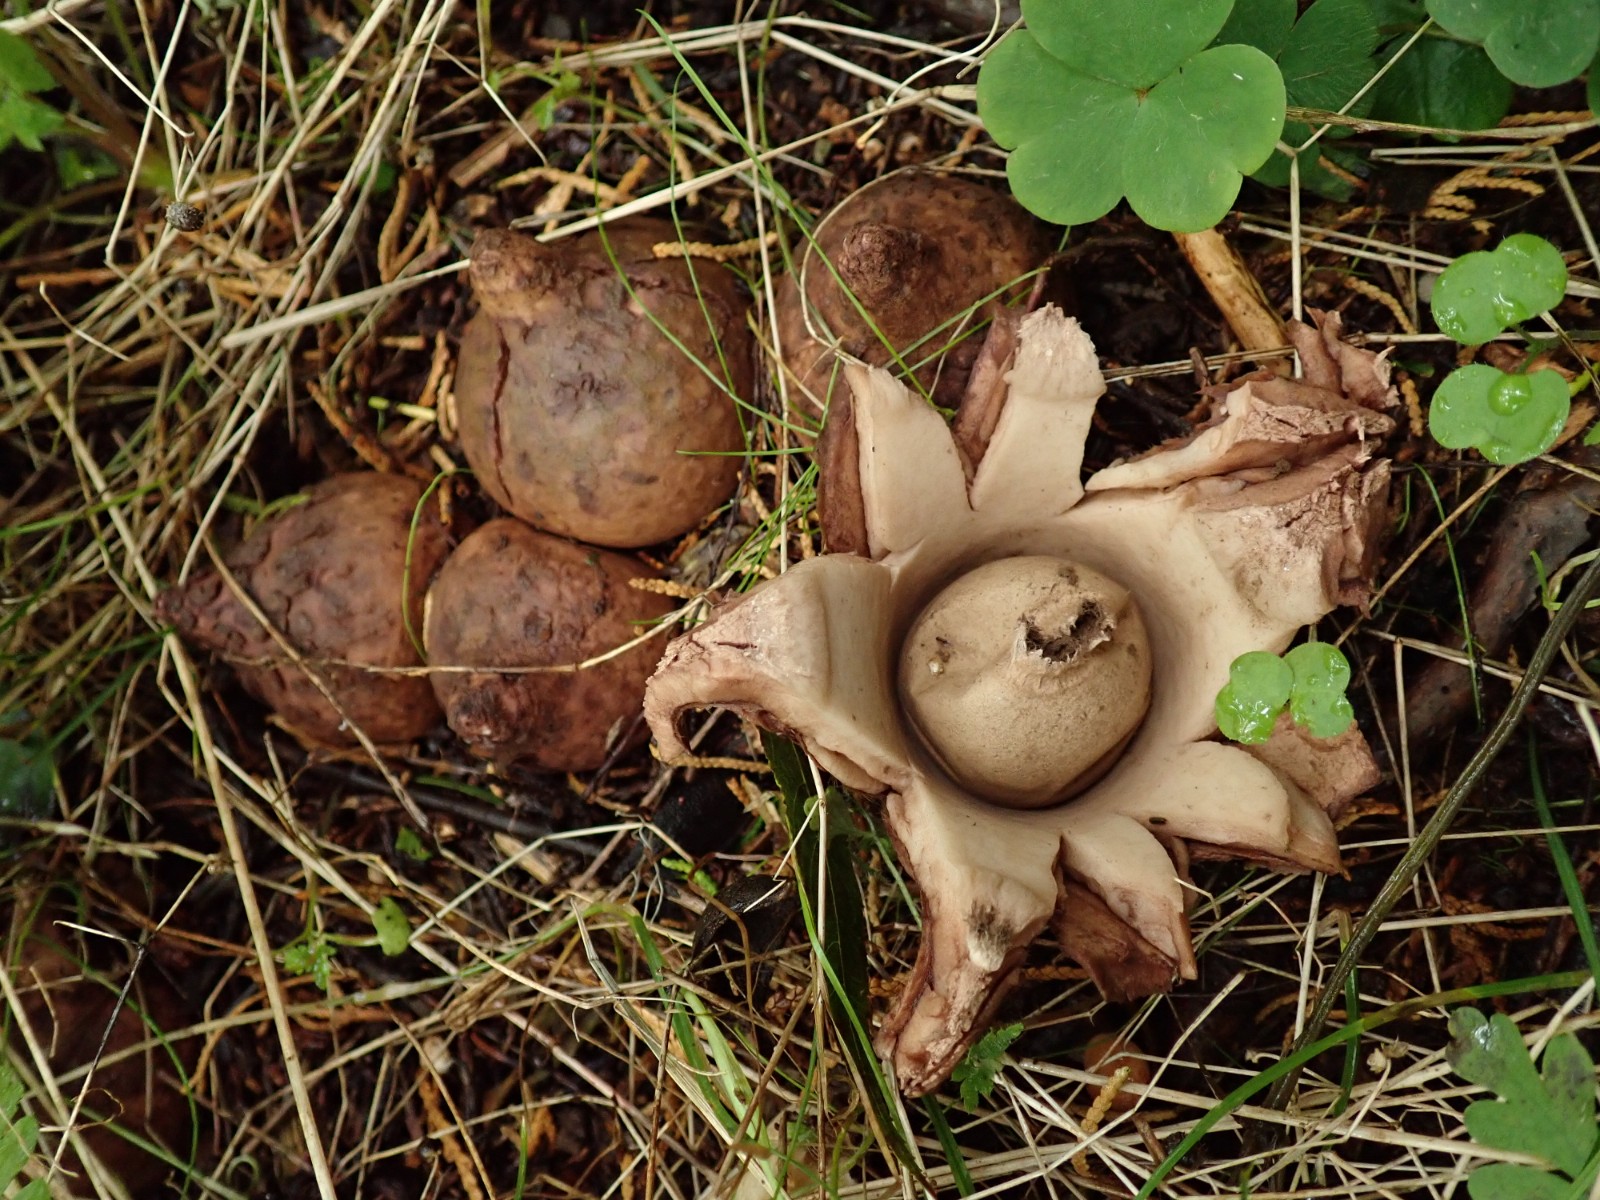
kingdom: Fungi
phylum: Basidiomycota
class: Agaricomycetes
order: Geastrales
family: Geastraceae
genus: Geastrum
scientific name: Geastrum michelianum
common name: kødet stjernebold
